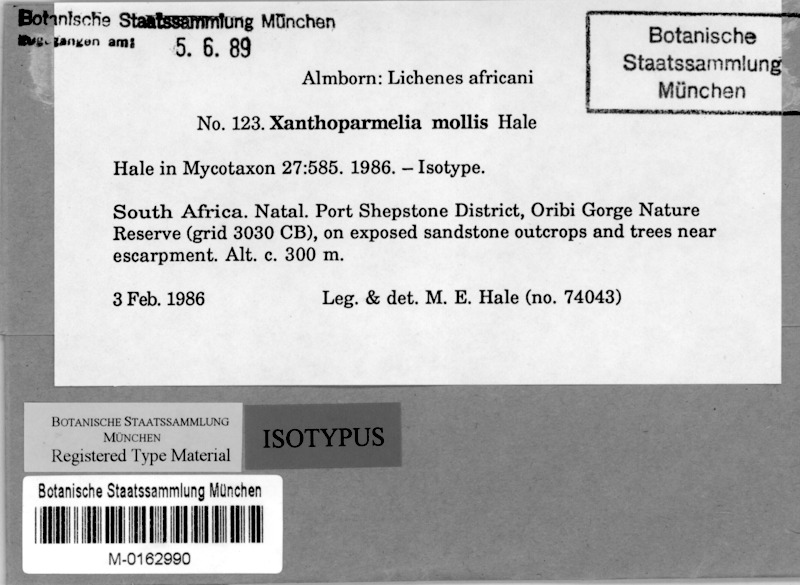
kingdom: Fungi
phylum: Ascomycota
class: Lecanoromycetes
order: Lecanorales
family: Parmeliaceae
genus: Xanthoparmelia
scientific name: Xanthoparmelia mollis
